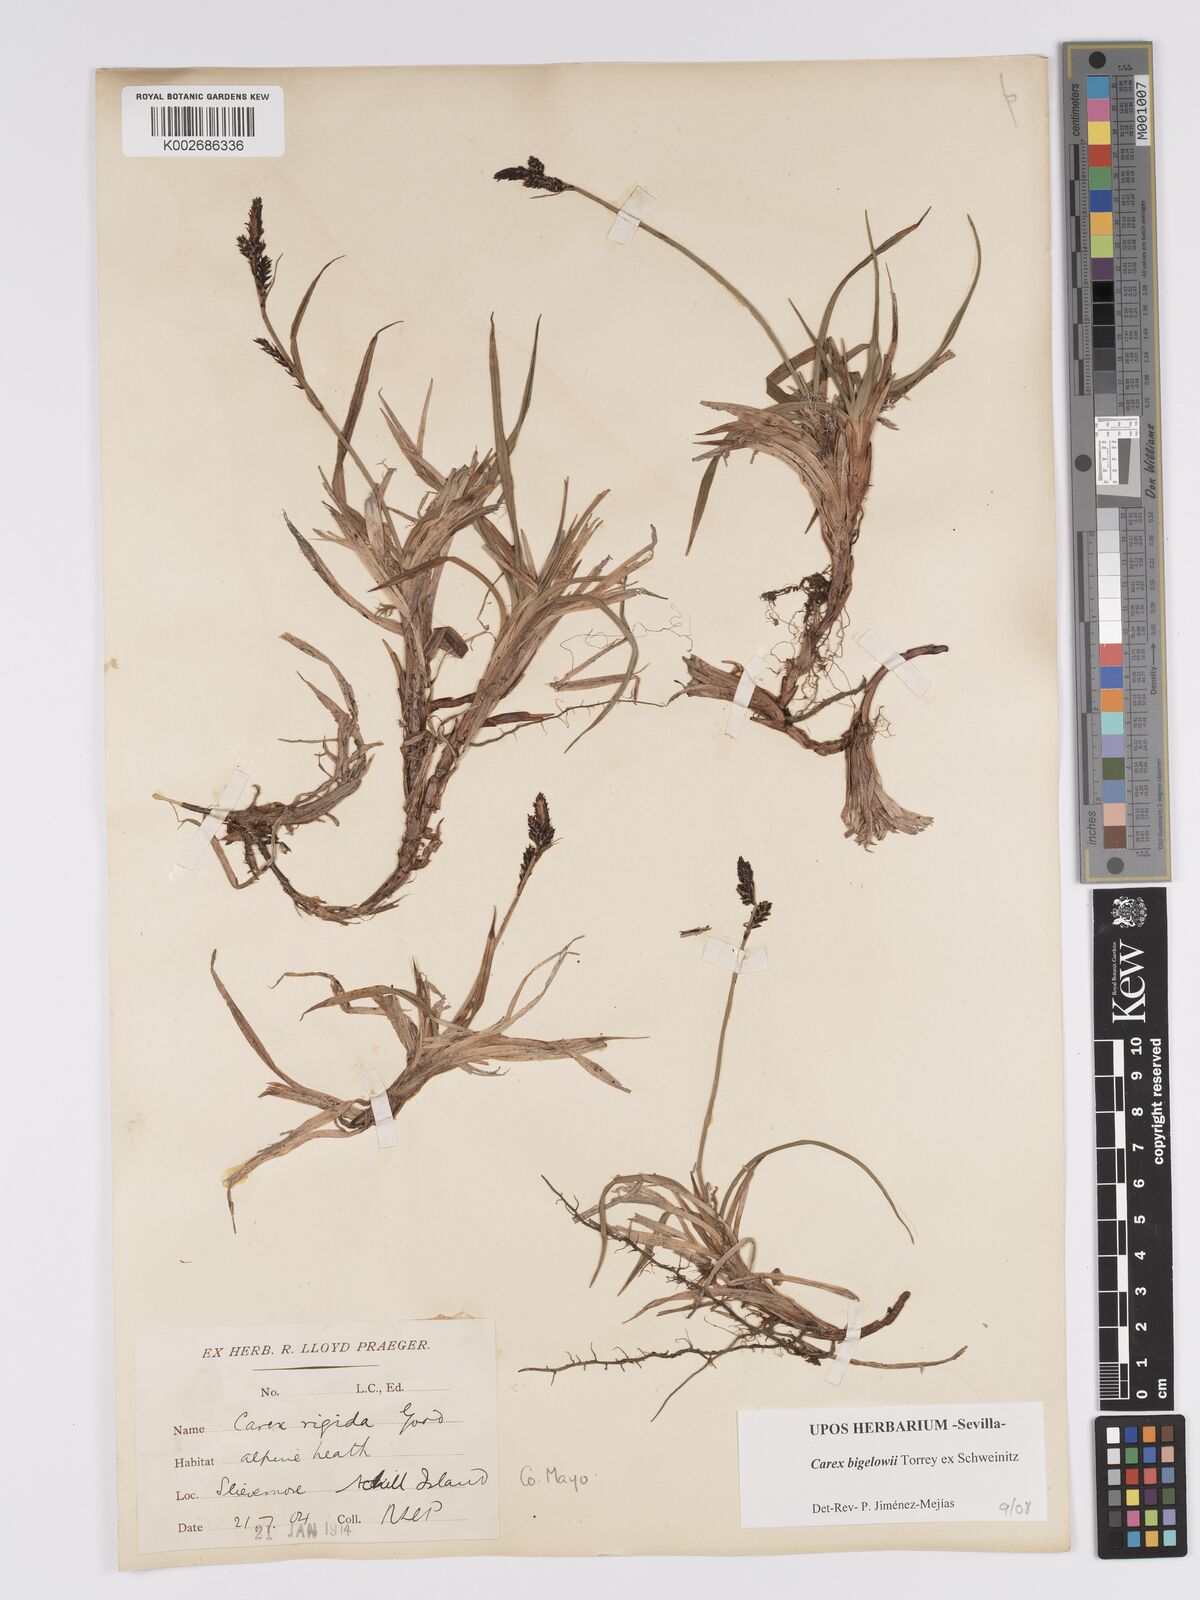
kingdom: Plantae
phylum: Tracheophyta
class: Liliopsida
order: Poales
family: Cyperaceae
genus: Carex
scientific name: Carex bigelowii
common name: Stiff sedge
